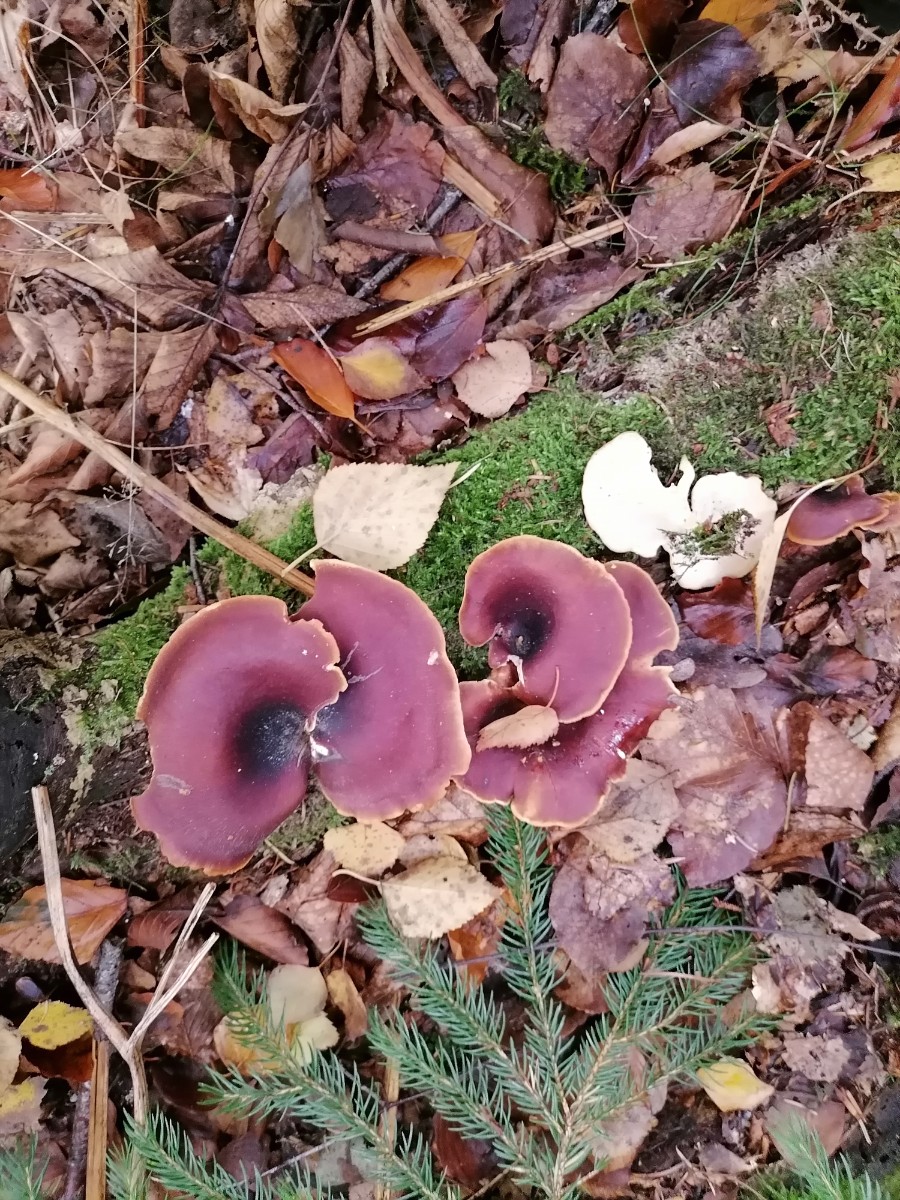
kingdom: Fungi
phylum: Basidiomycota
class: Agaricomycetes
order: Polyporales
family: Polyporaceae
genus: Picipes
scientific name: Picipes badius
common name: kastaniebrun stilkporesvamp
